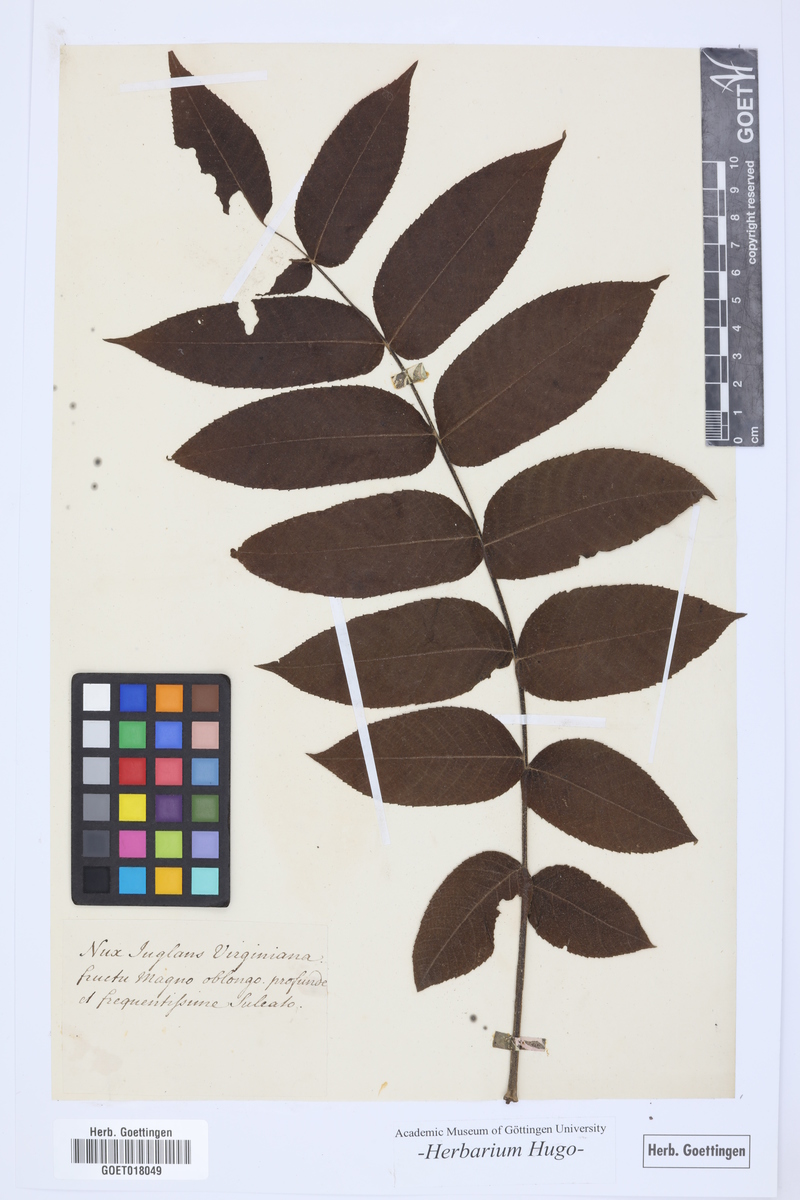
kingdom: Plantae
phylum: Tracheophyta
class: Magnoliopsida
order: Fagales
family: Juglandaceae
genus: Juglans
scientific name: Juglans
